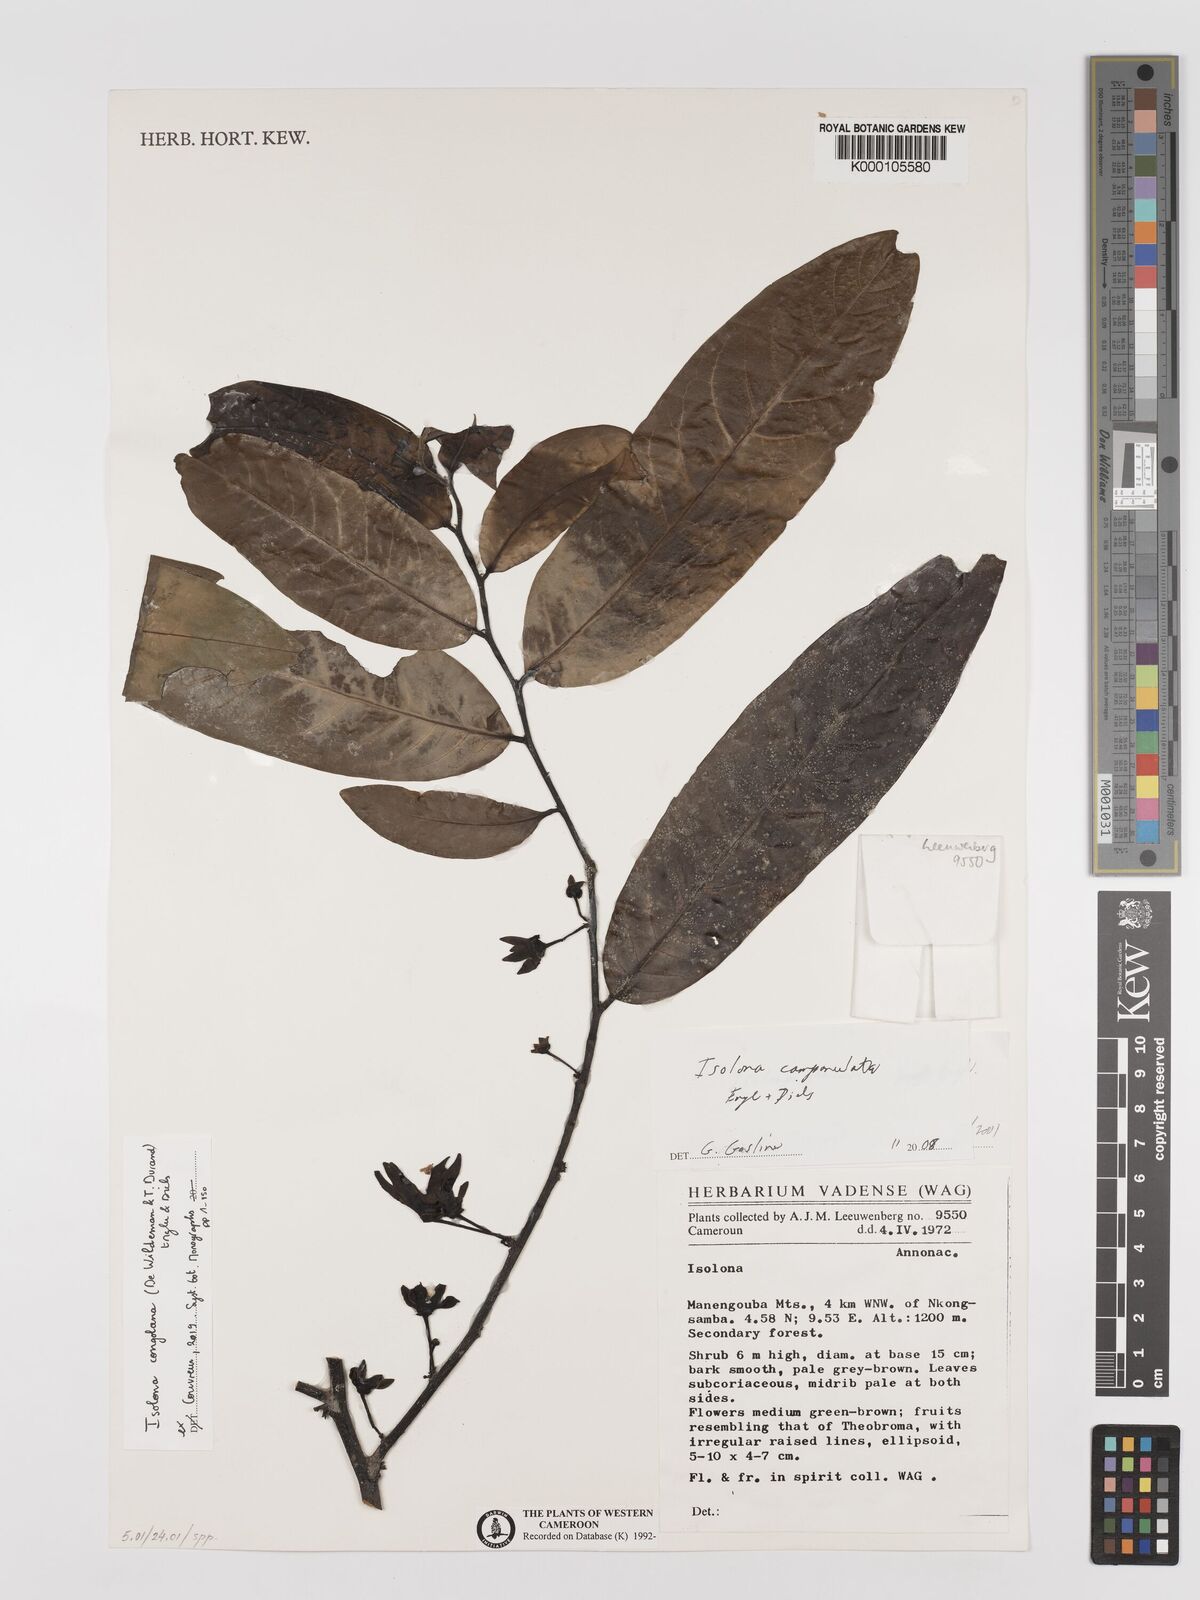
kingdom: Plantae
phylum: Tracheophyta
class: Magnoliopsida
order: Magnoliales
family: Annonaceae
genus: Isolona
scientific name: Isolona campanulata
